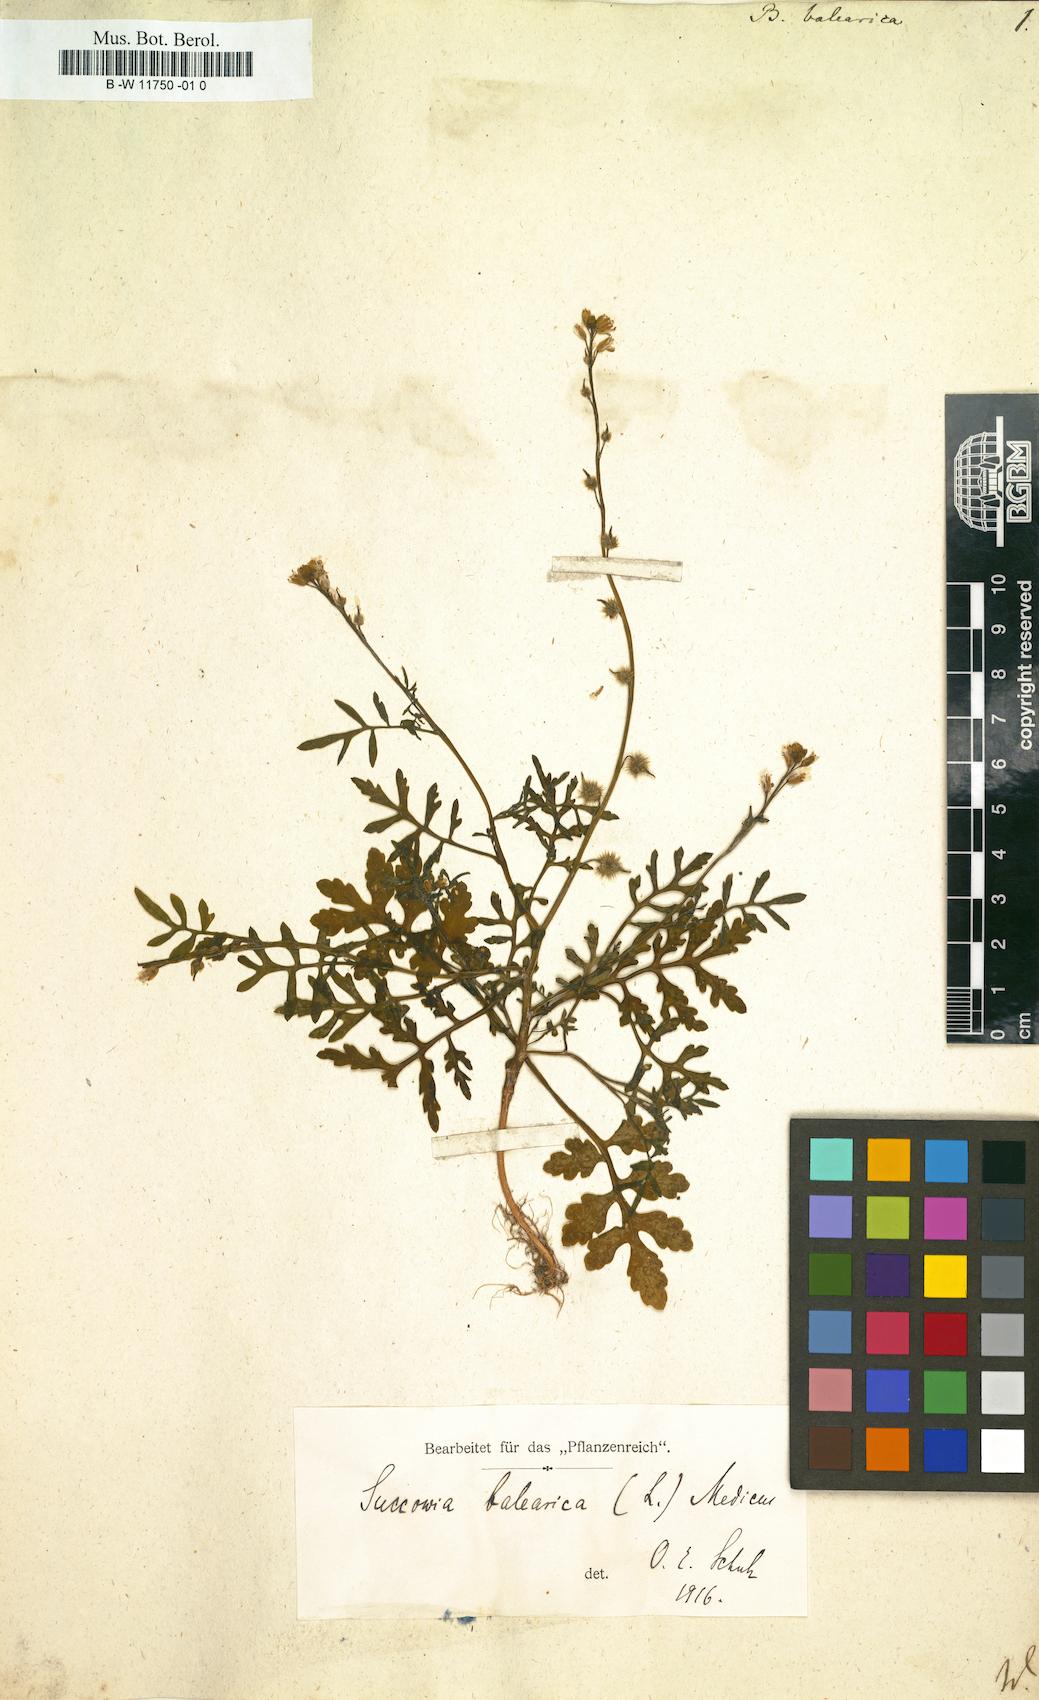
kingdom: Plantae
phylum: Tracheophyta
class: Magnoliopsida
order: Brassicales
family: Brassicaceae
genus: Succowia
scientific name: Succowia balearica
